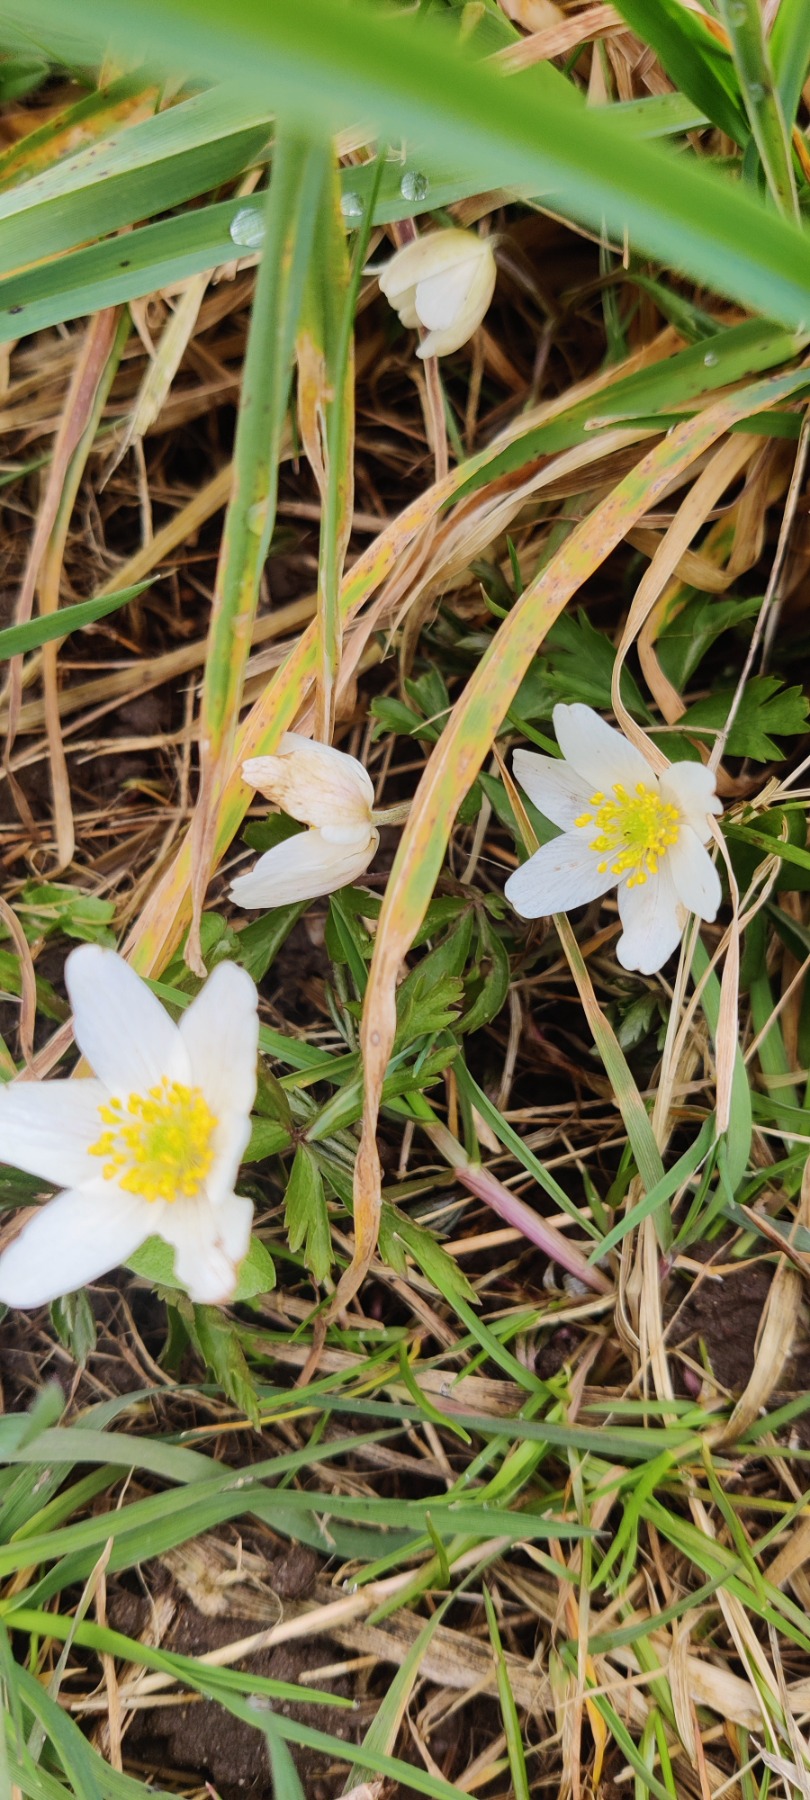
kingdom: Plantae
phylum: Tracheophyta
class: Magnoliopsida
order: Ranunculales
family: Ranunculaceae
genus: Anemone
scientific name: Anemone nemorosa
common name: Hvid anemone
